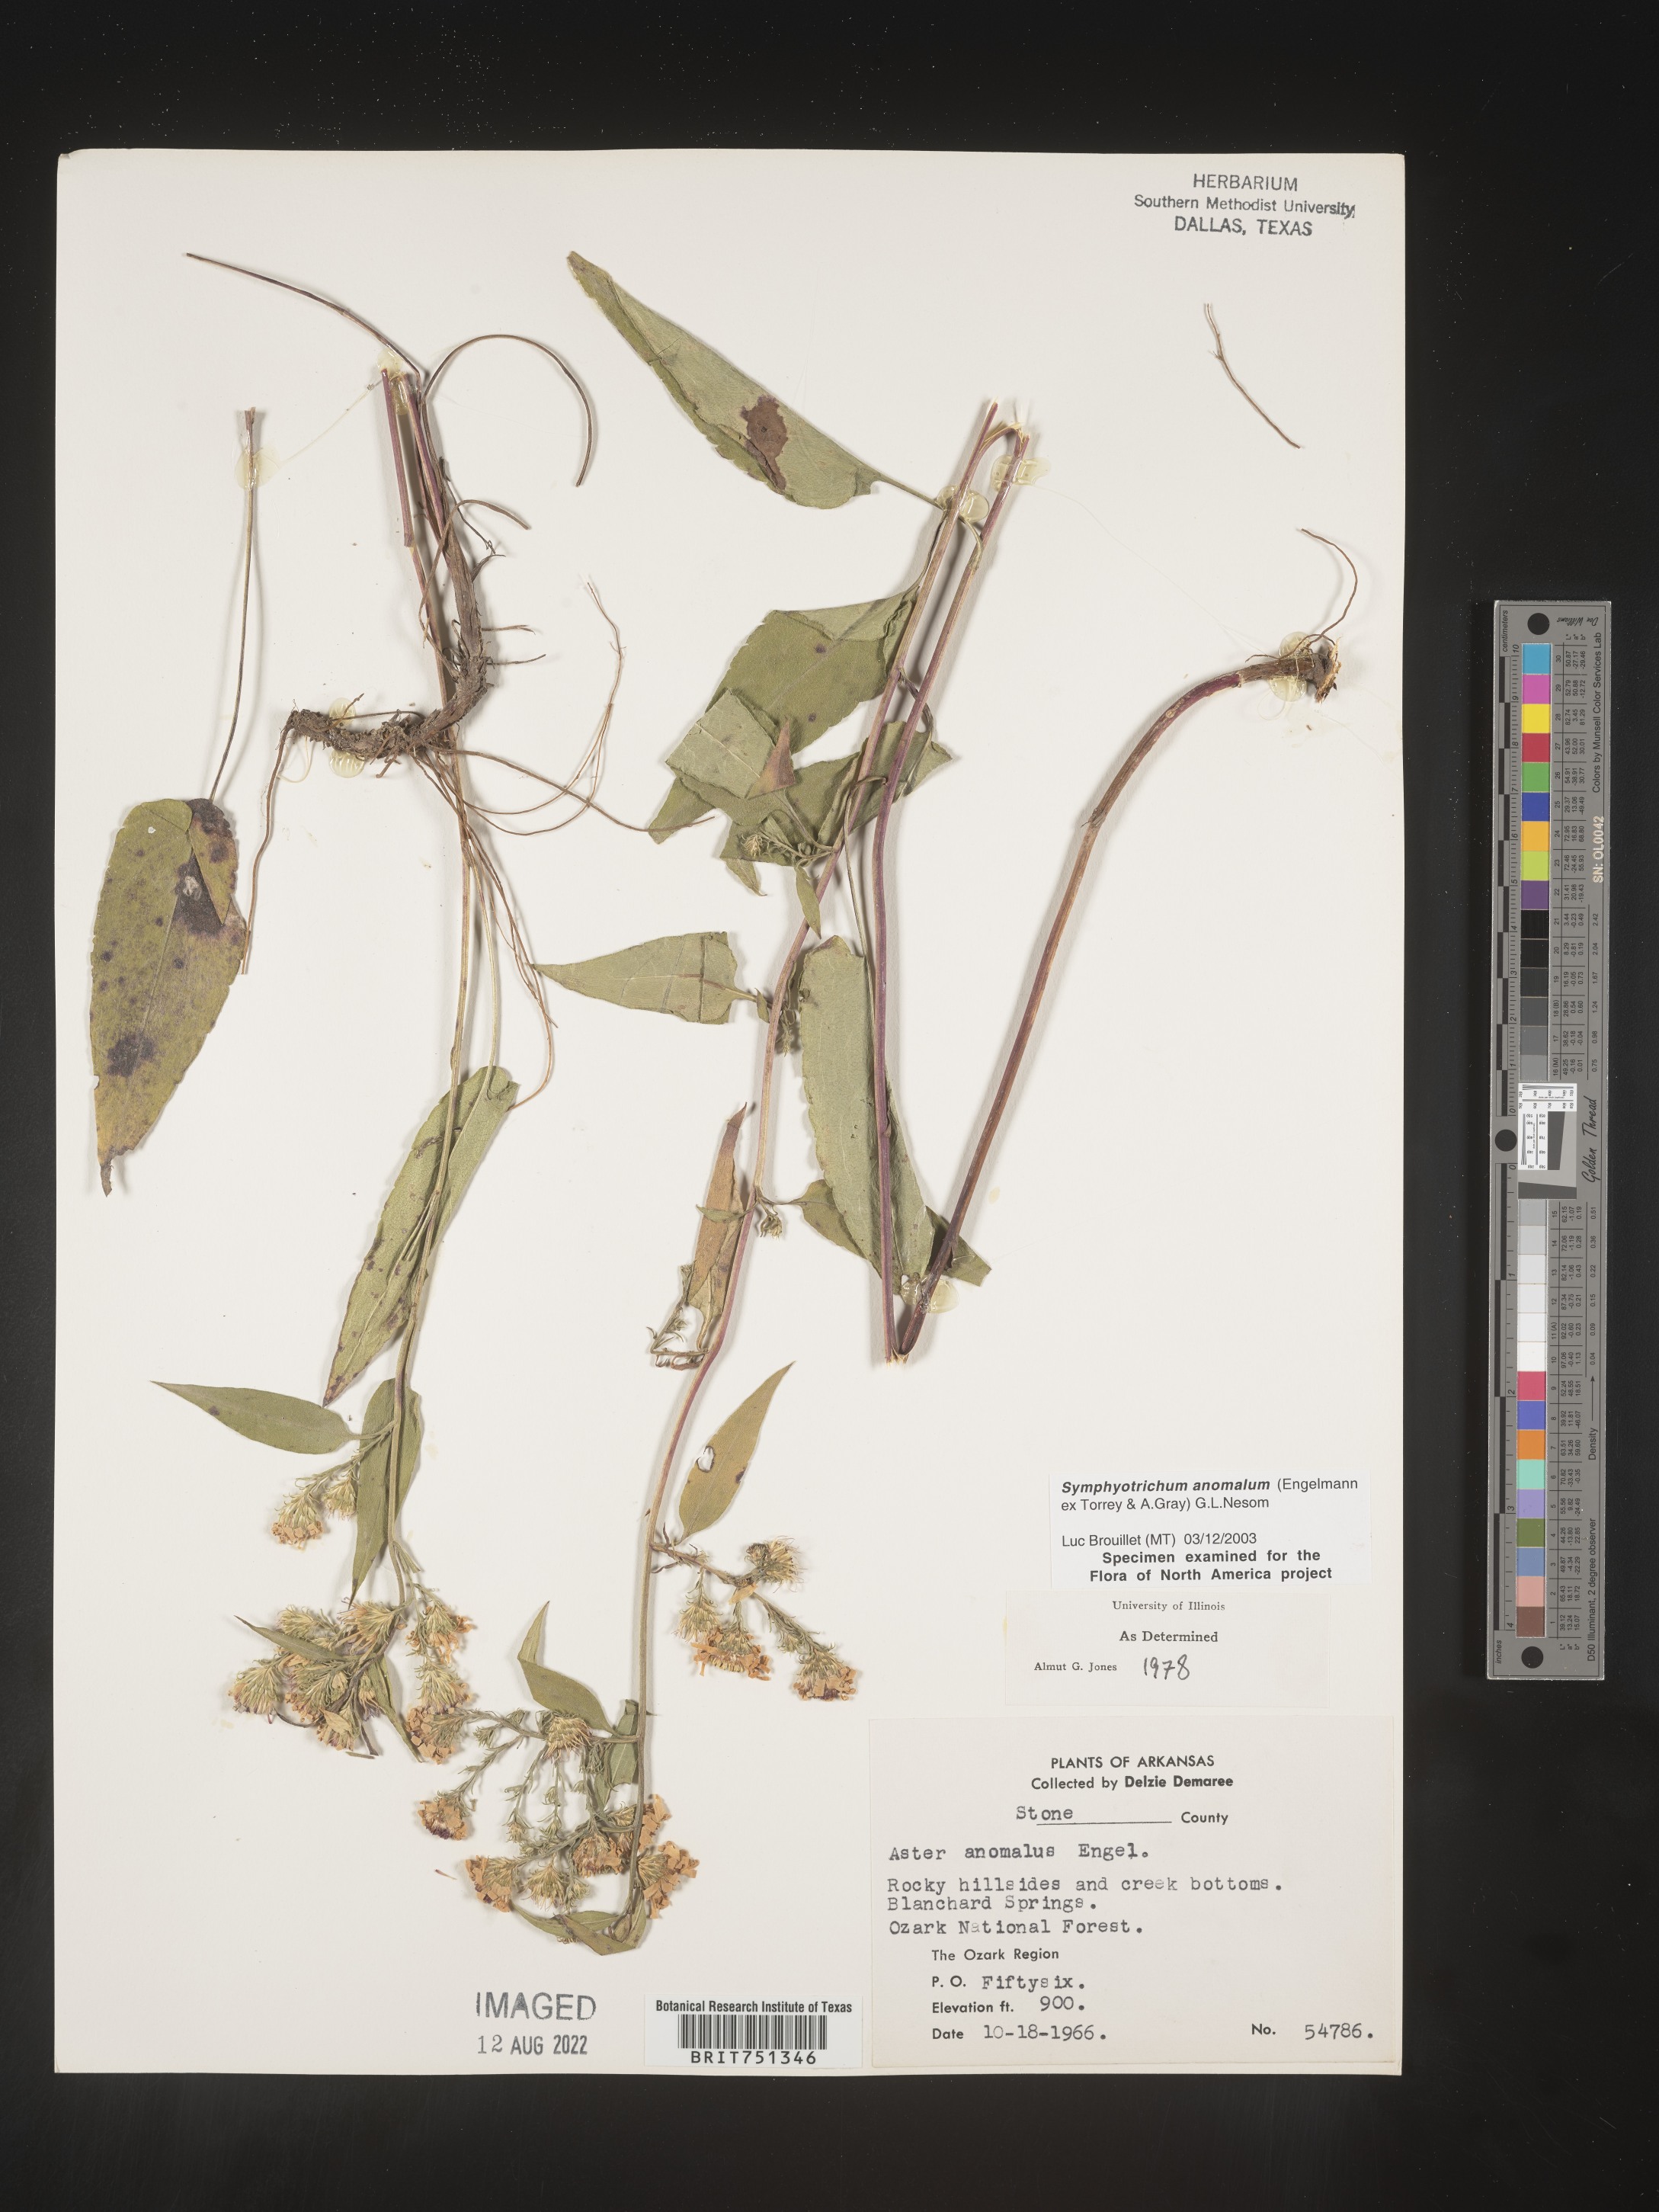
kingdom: Plantae
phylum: Tracheophyta
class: Magnoliopsida
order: Asterales
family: Asteraceae
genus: Symphyotrichum
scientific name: Symphyotrichum anomalum
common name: Many-ray aster
